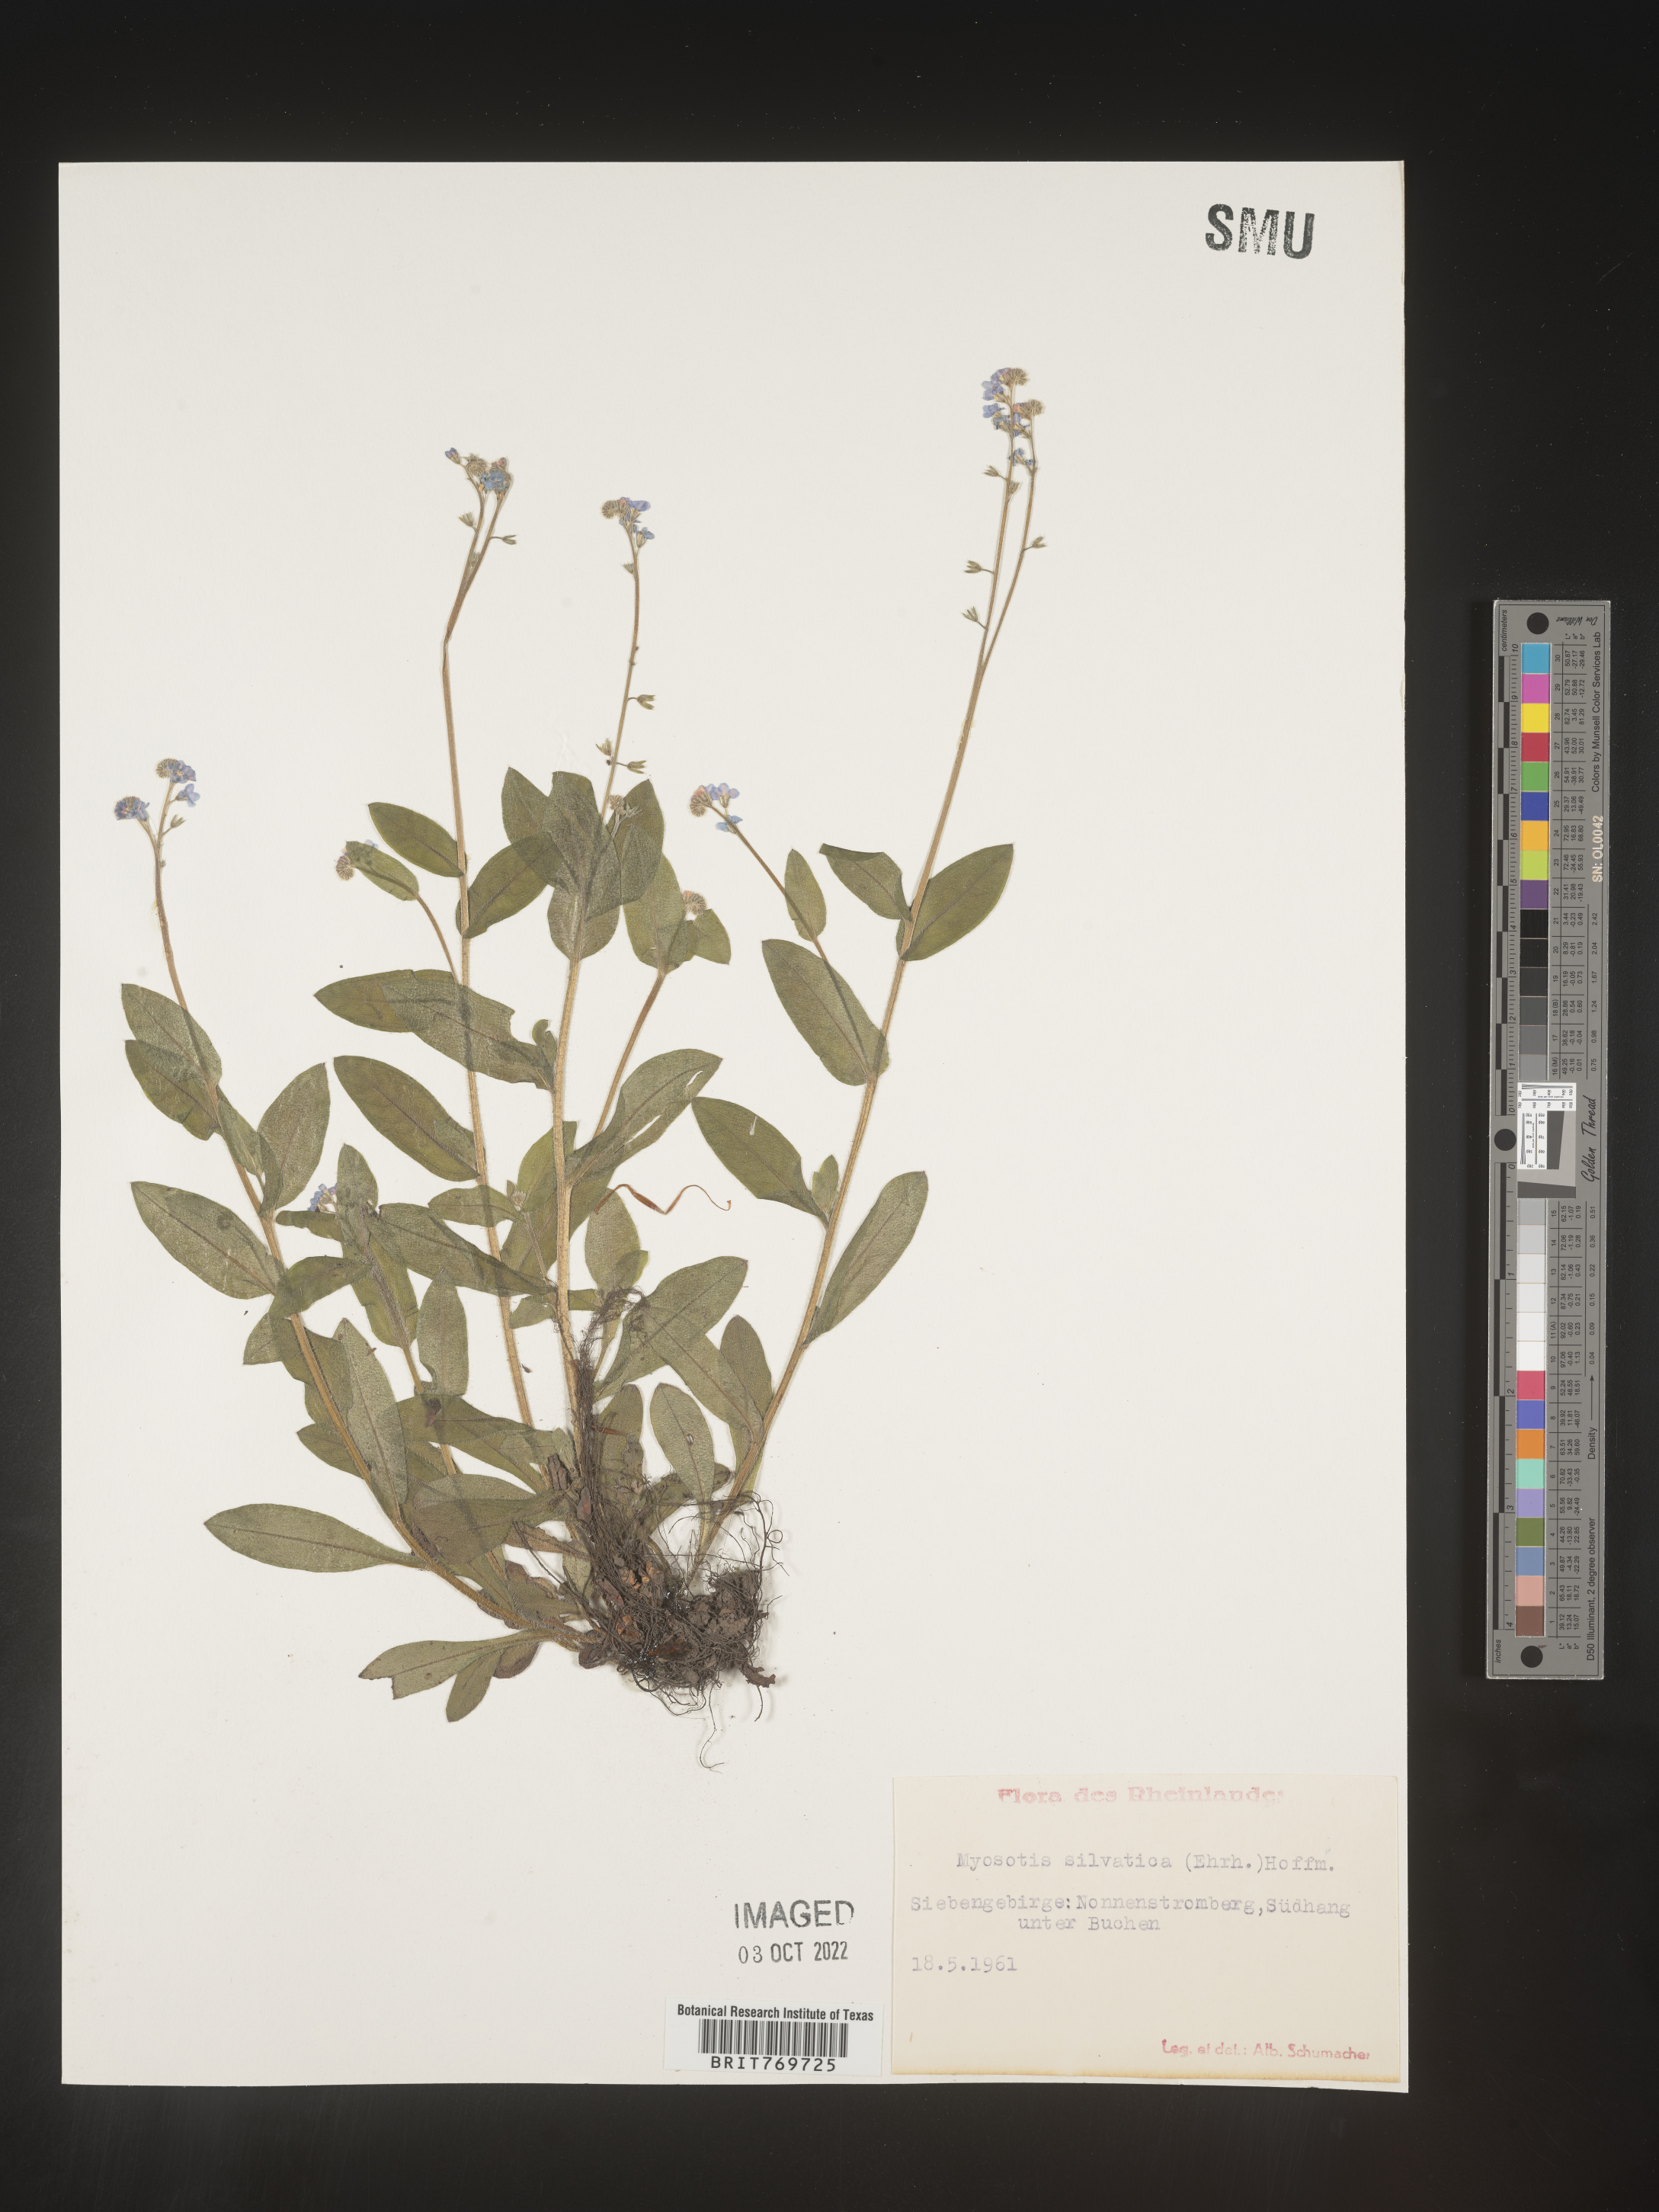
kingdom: Plantae
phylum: Tracheophyta
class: Magnoliopsida
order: Boraginales
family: Boraginaceae
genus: Myosotis
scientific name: Myosotis
